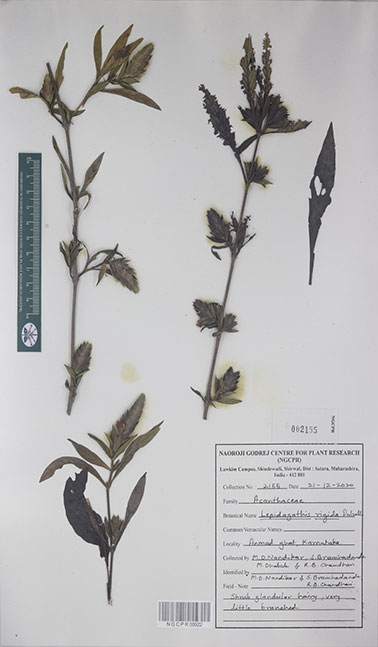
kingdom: Plantae
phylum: Tracheophyta
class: Magnoliopsida
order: Lamiales
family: Acanthaceae
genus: Lepidagathis
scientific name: Lepidagathis rigida
